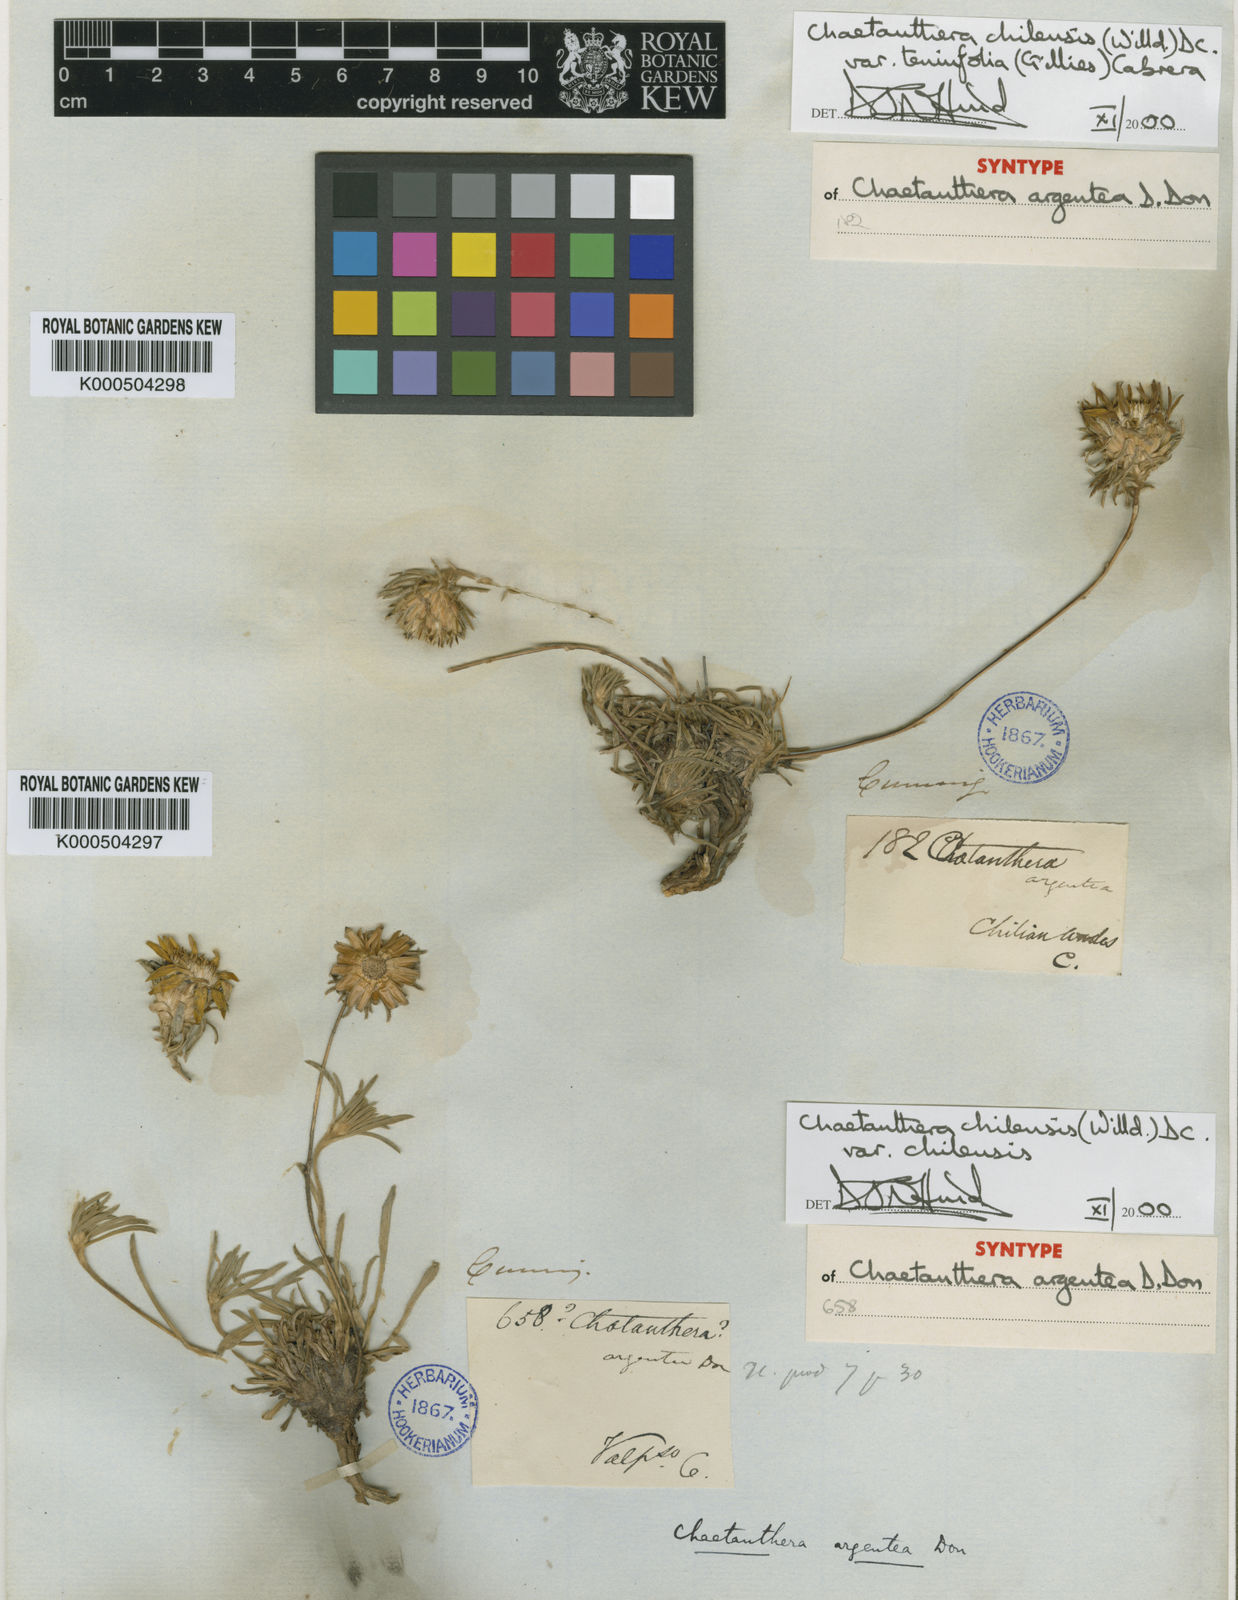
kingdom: Plantae
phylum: Tracheophyta
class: Magnoliopsida
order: Asterales
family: Asteraceae
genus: Chaetanthera
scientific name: Chaetanthera chilensis
